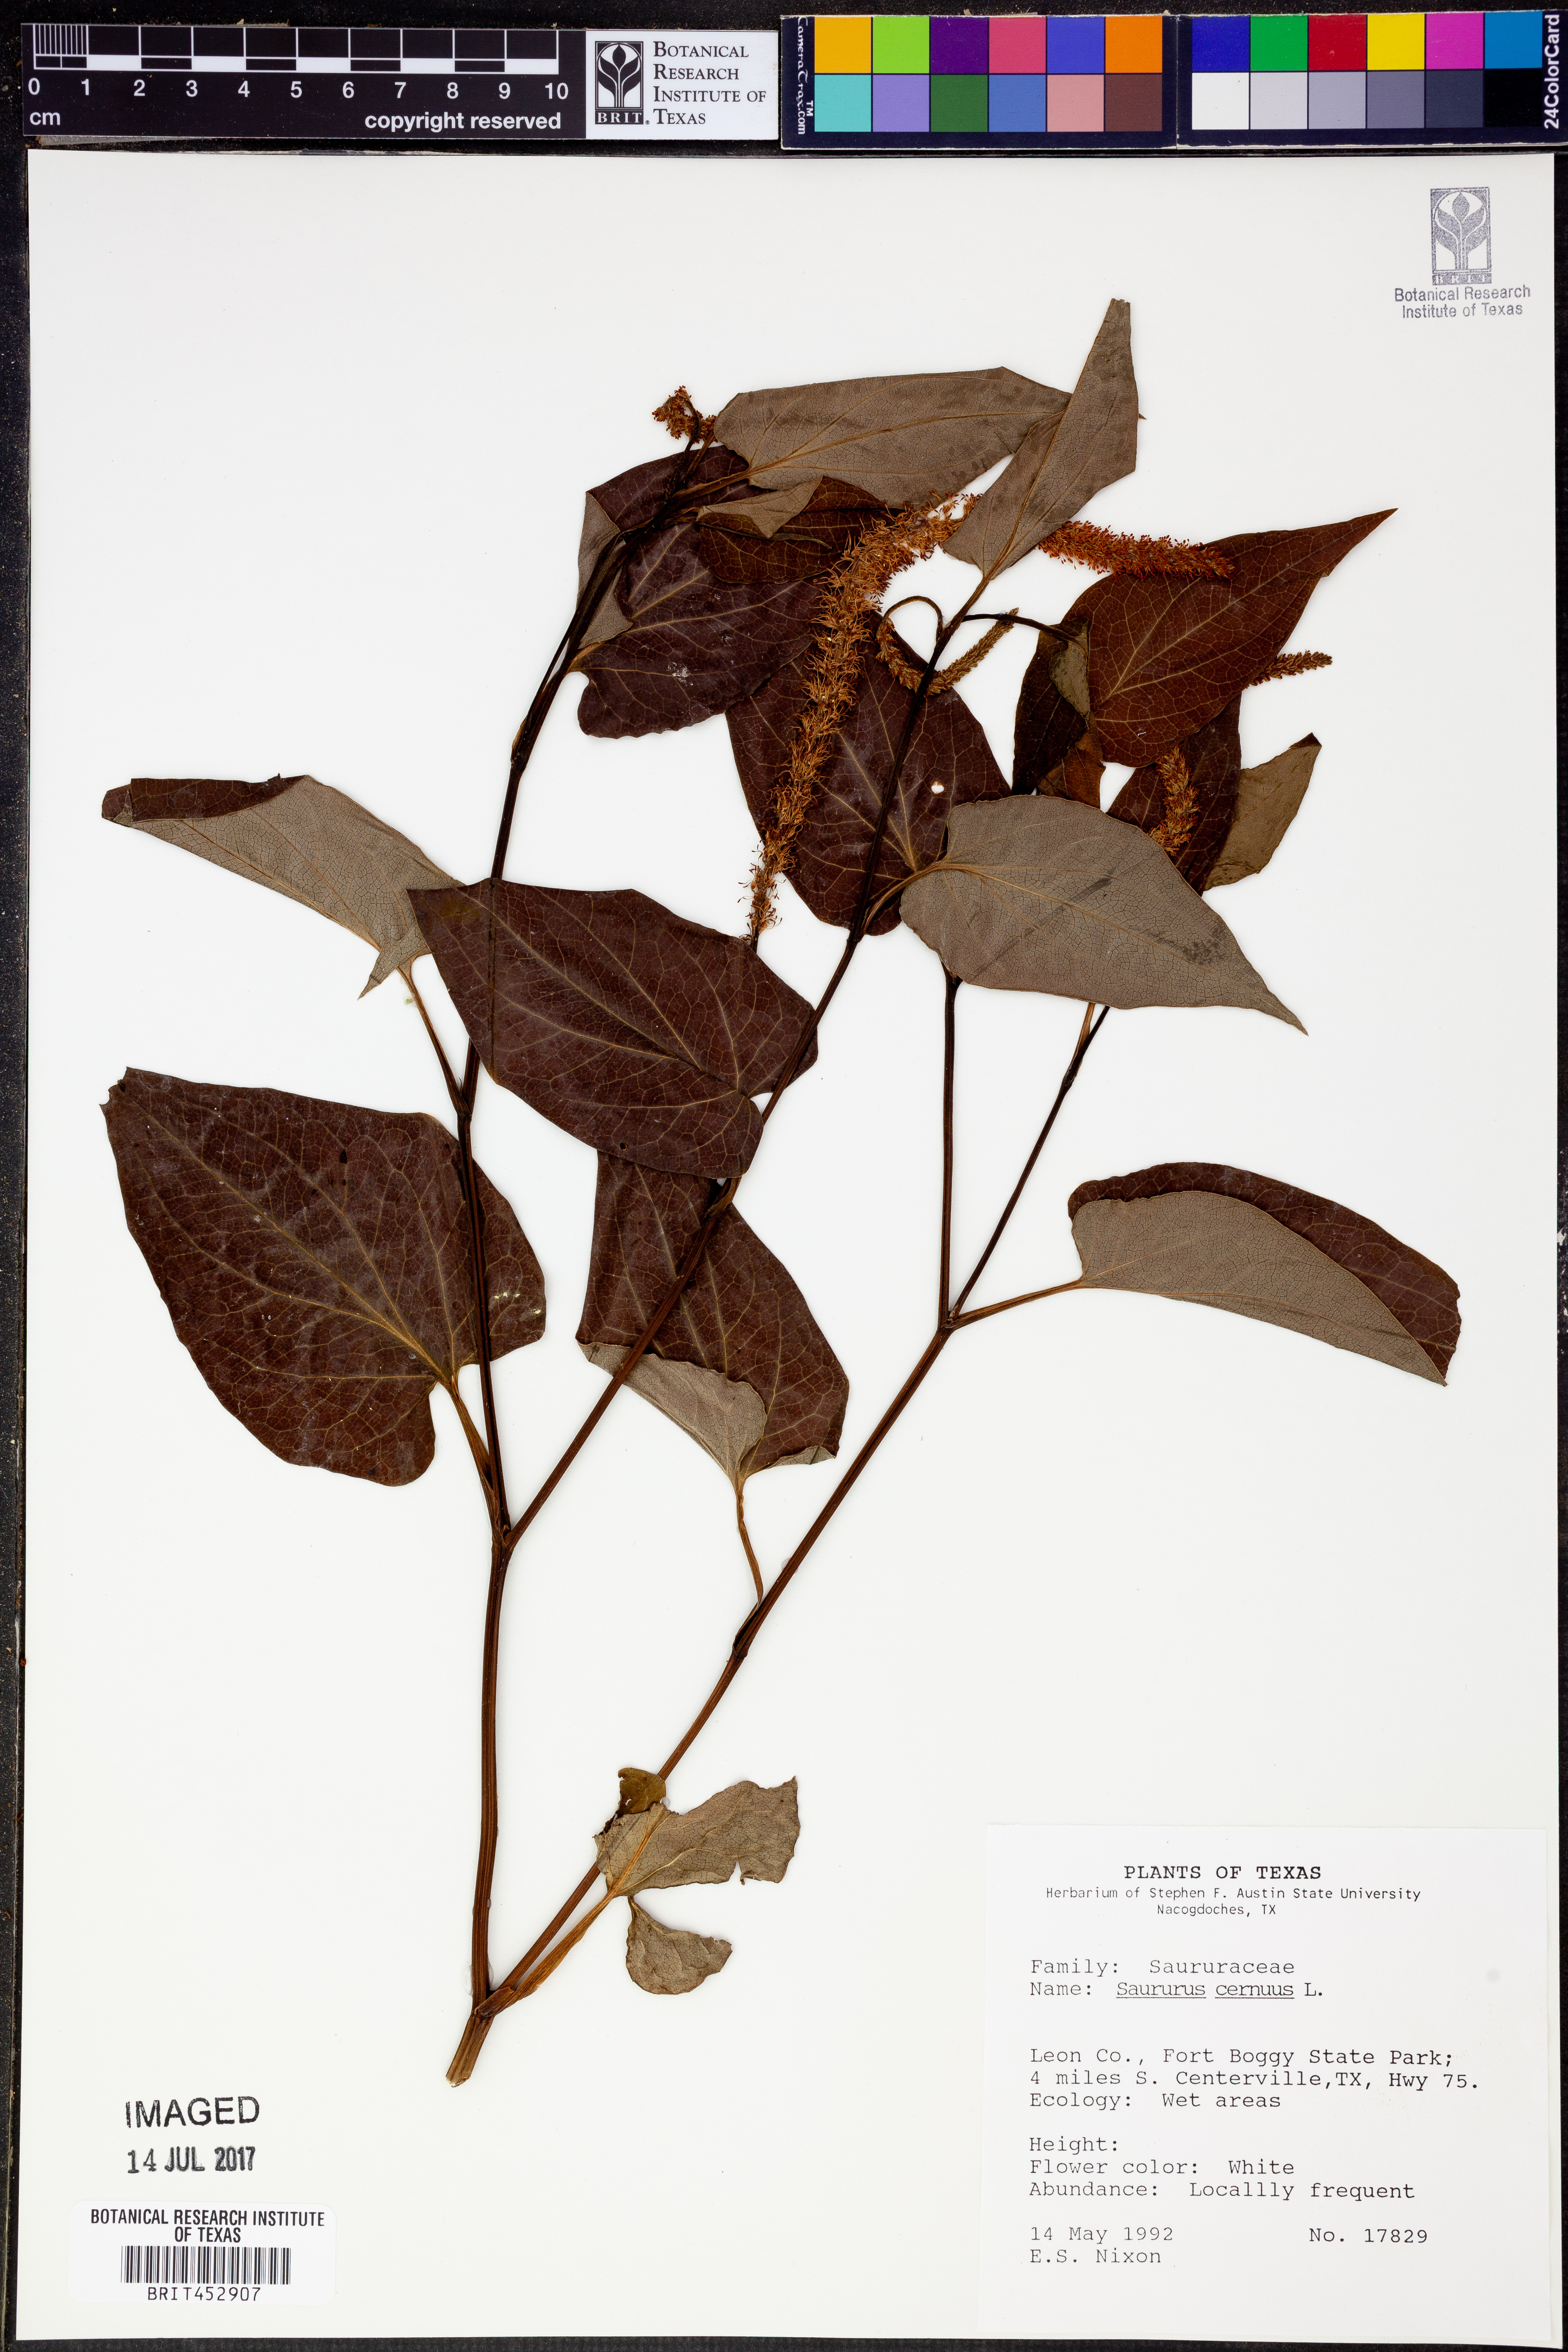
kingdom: Plantae
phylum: Tracheophyta
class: Magnoliopsida
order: Piperales
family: Saururaceae
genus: Saururus
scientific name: Saururus cernuus
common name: Lizard's-tail
